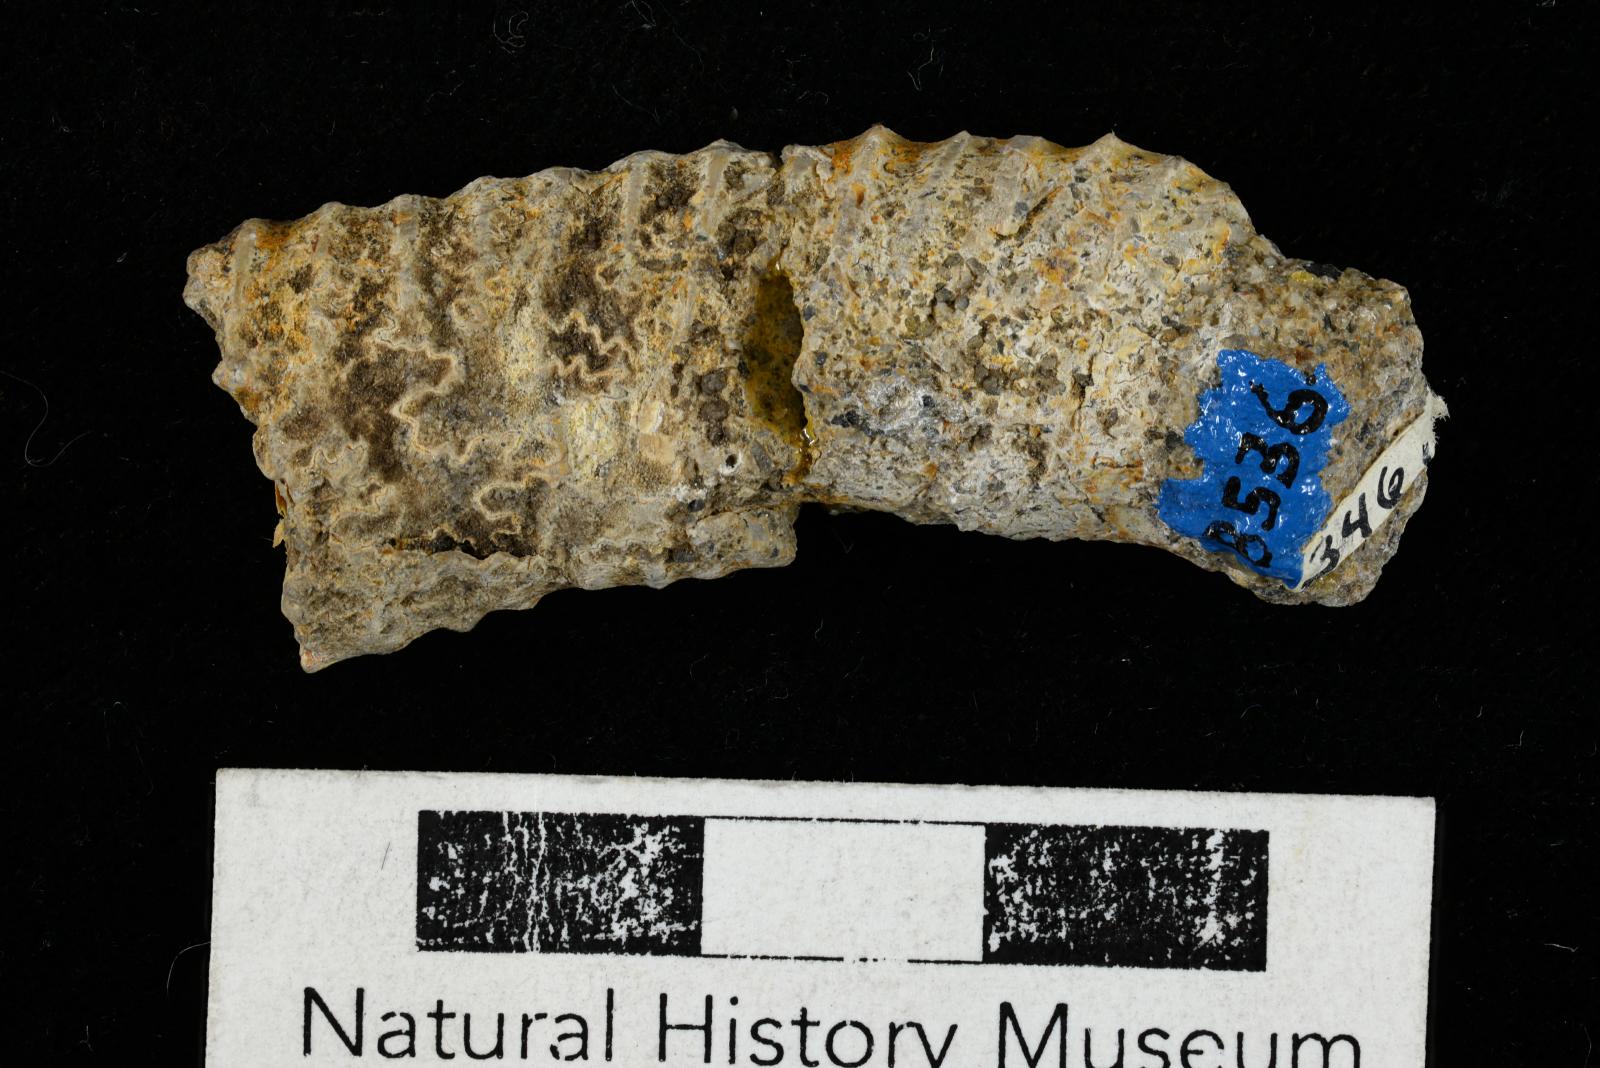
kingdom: Animalia
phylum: Mollusca
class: Cephalopoda
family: Nostoceratidae
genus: Nostoceras
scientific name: Nostoceras
